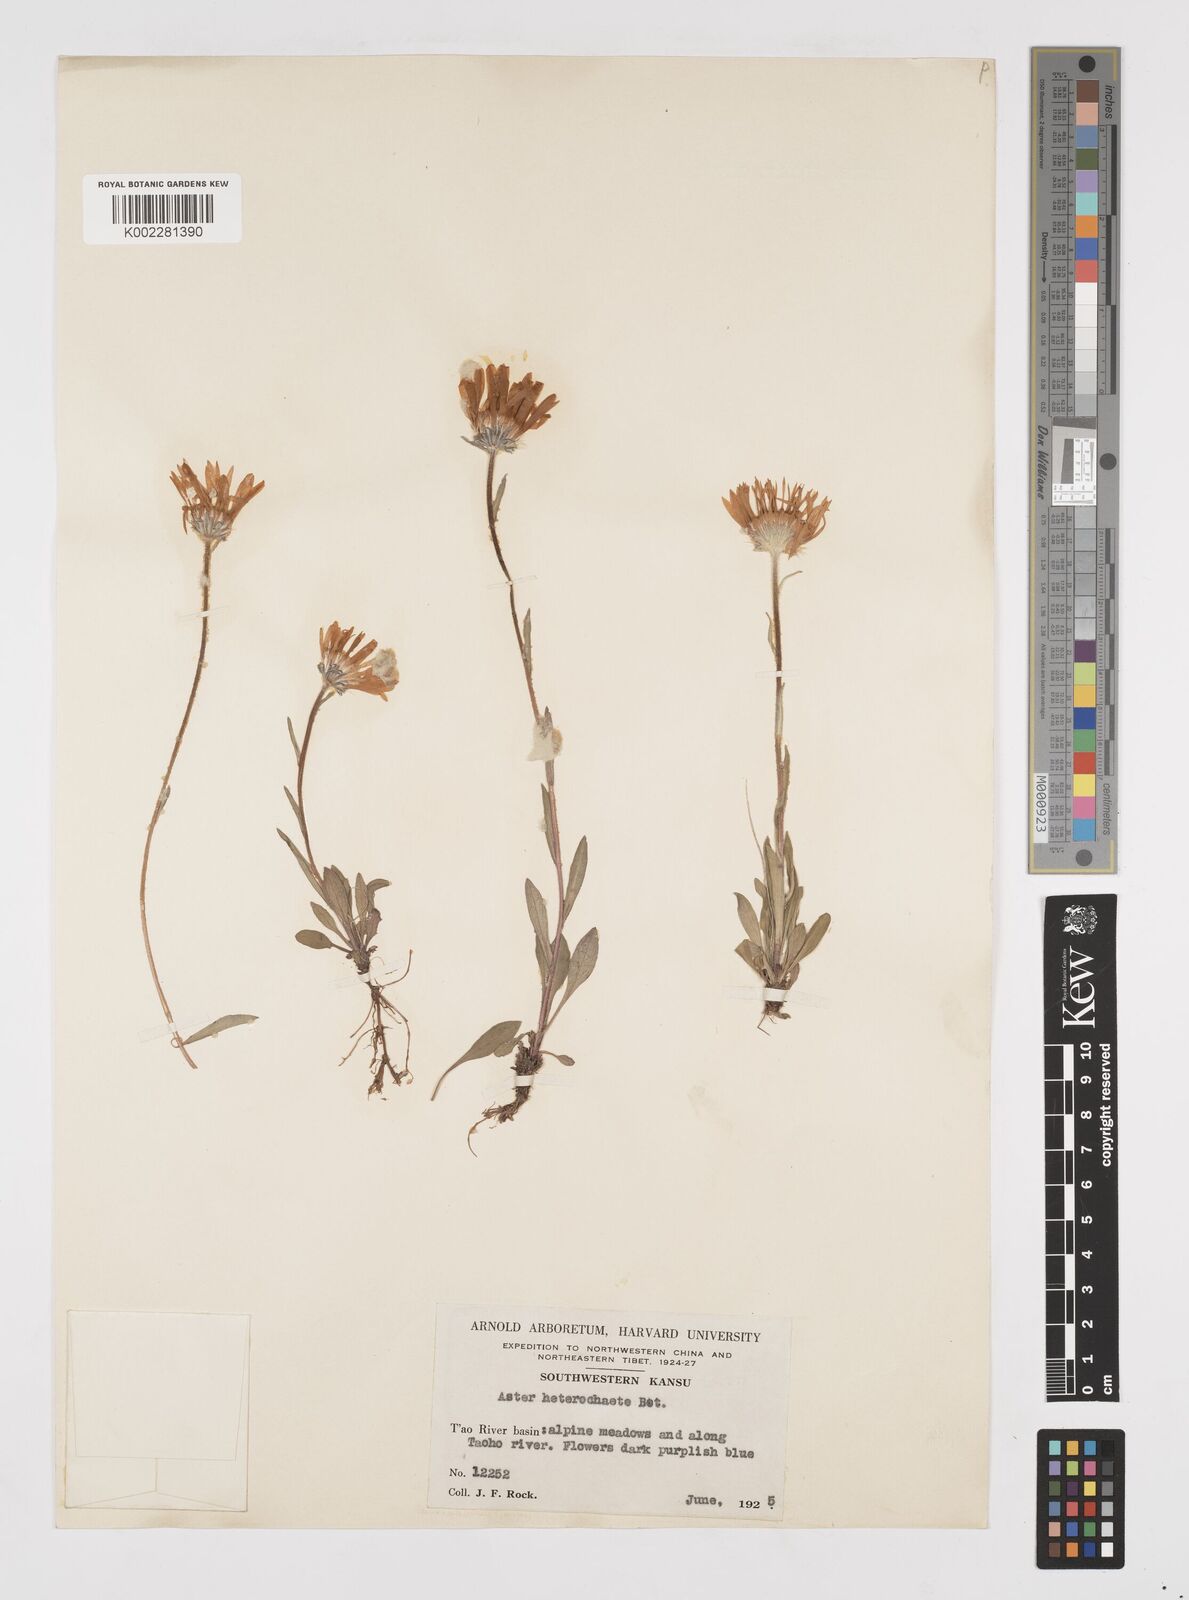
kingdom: Plantae
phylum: Tracheophyta
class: Magnoliopsida
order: Asterales
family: Asteraceae
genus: Tibetiodes
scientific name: Tibetiodes flaccida
